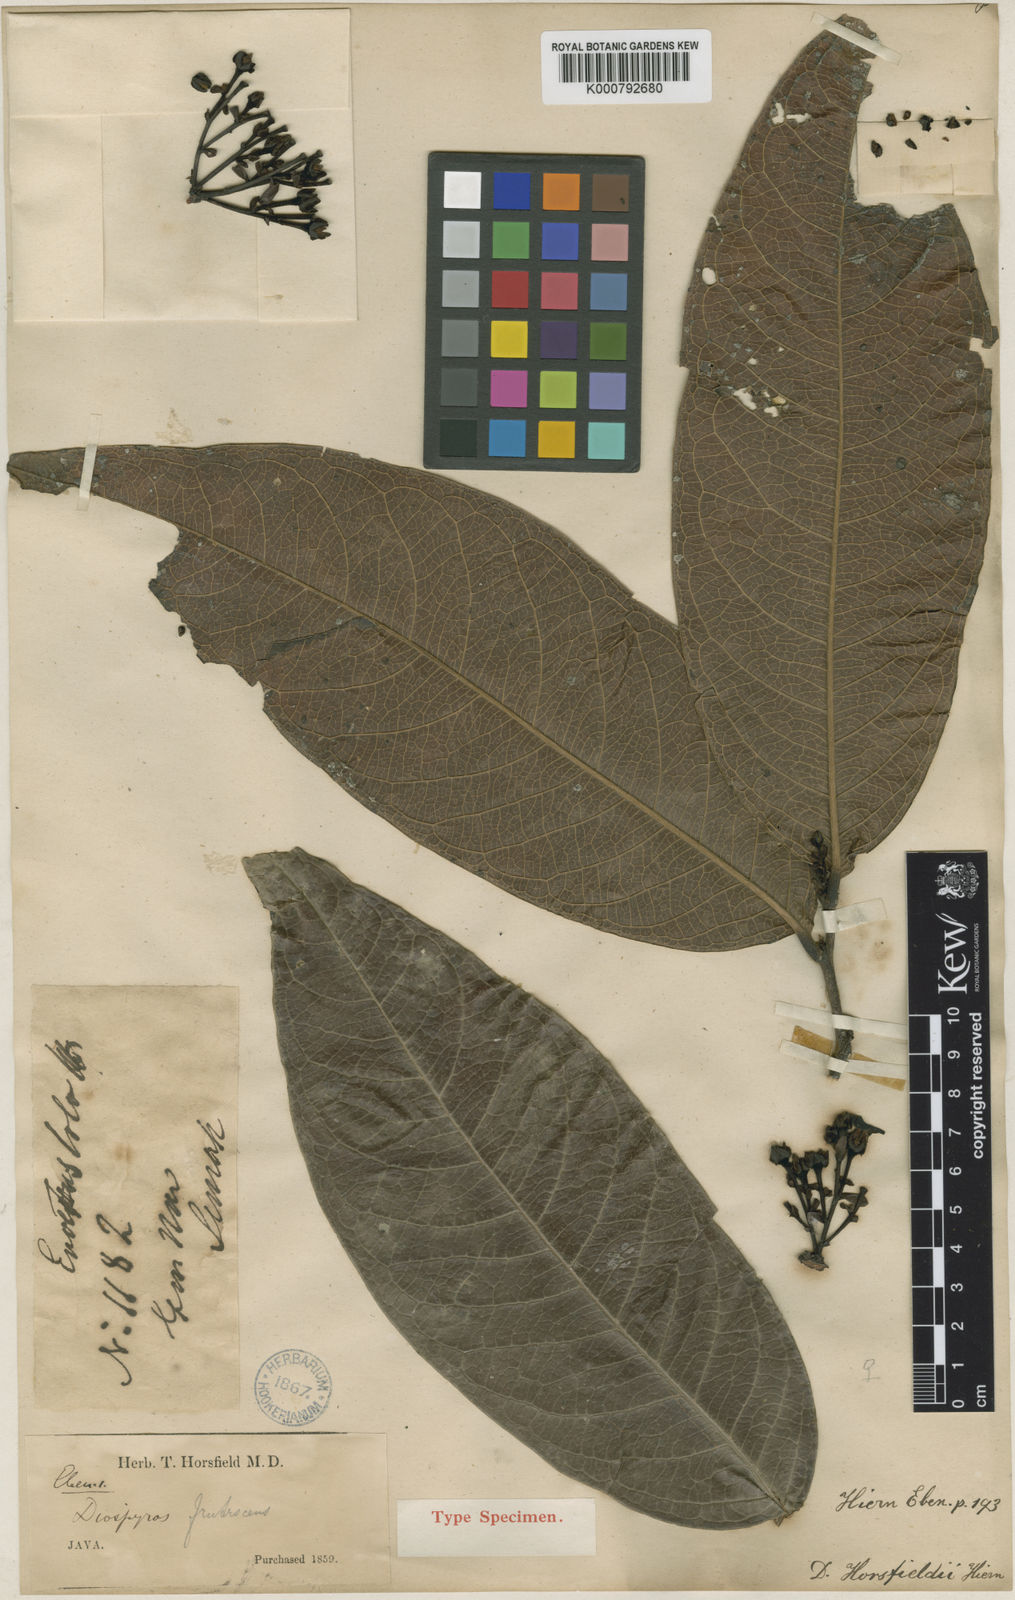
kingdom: Plantae
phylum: Tracheophyta
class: Magnoliopsida
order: Ericales
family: Ebenaceae
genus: Diospyros
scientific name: Diospyros hasseltii
